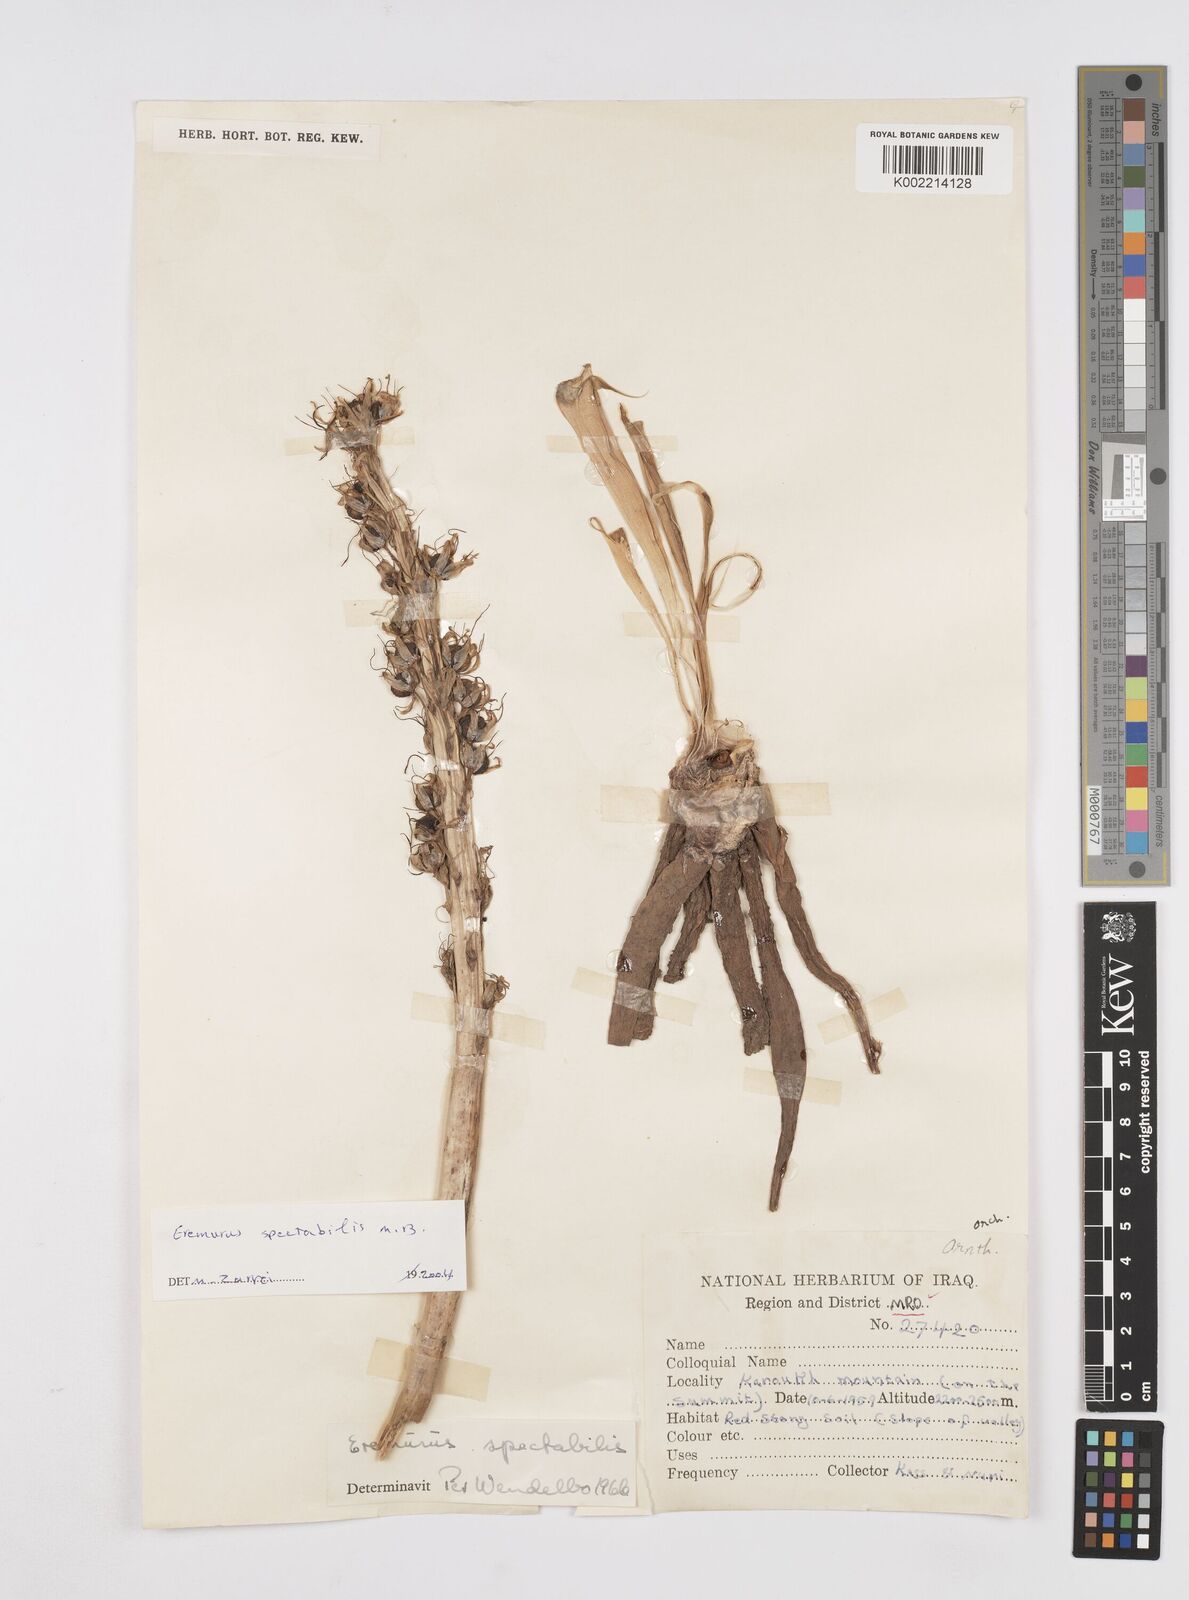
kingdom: Plantae
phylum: Tracheophyta
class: Liliopsida
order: Asparagales
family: Asphodelaceae
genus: Eremurus
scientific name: Eremurus spectabilis
